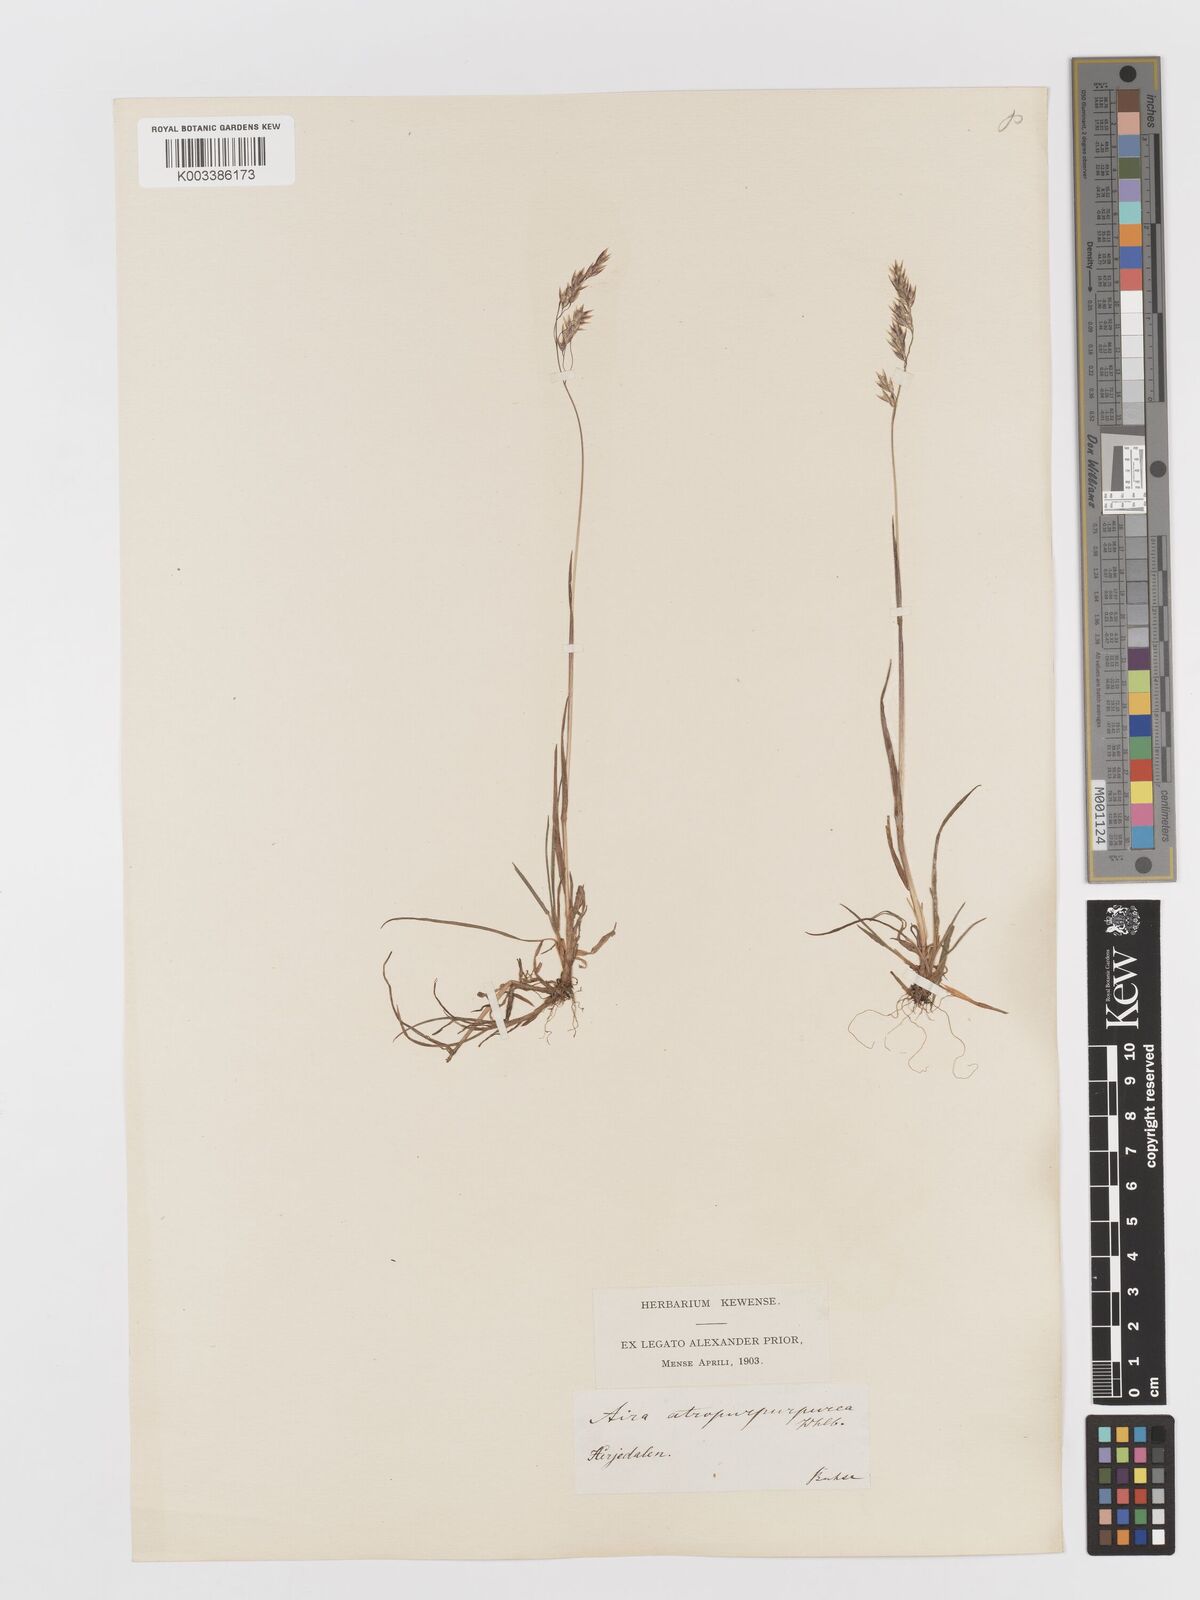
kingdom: Plantae
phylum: Tracheophyta
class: Liliopsida
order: Poales
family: Poaceae
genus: Vahlodea
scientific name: Vahlodea atropurpurea
